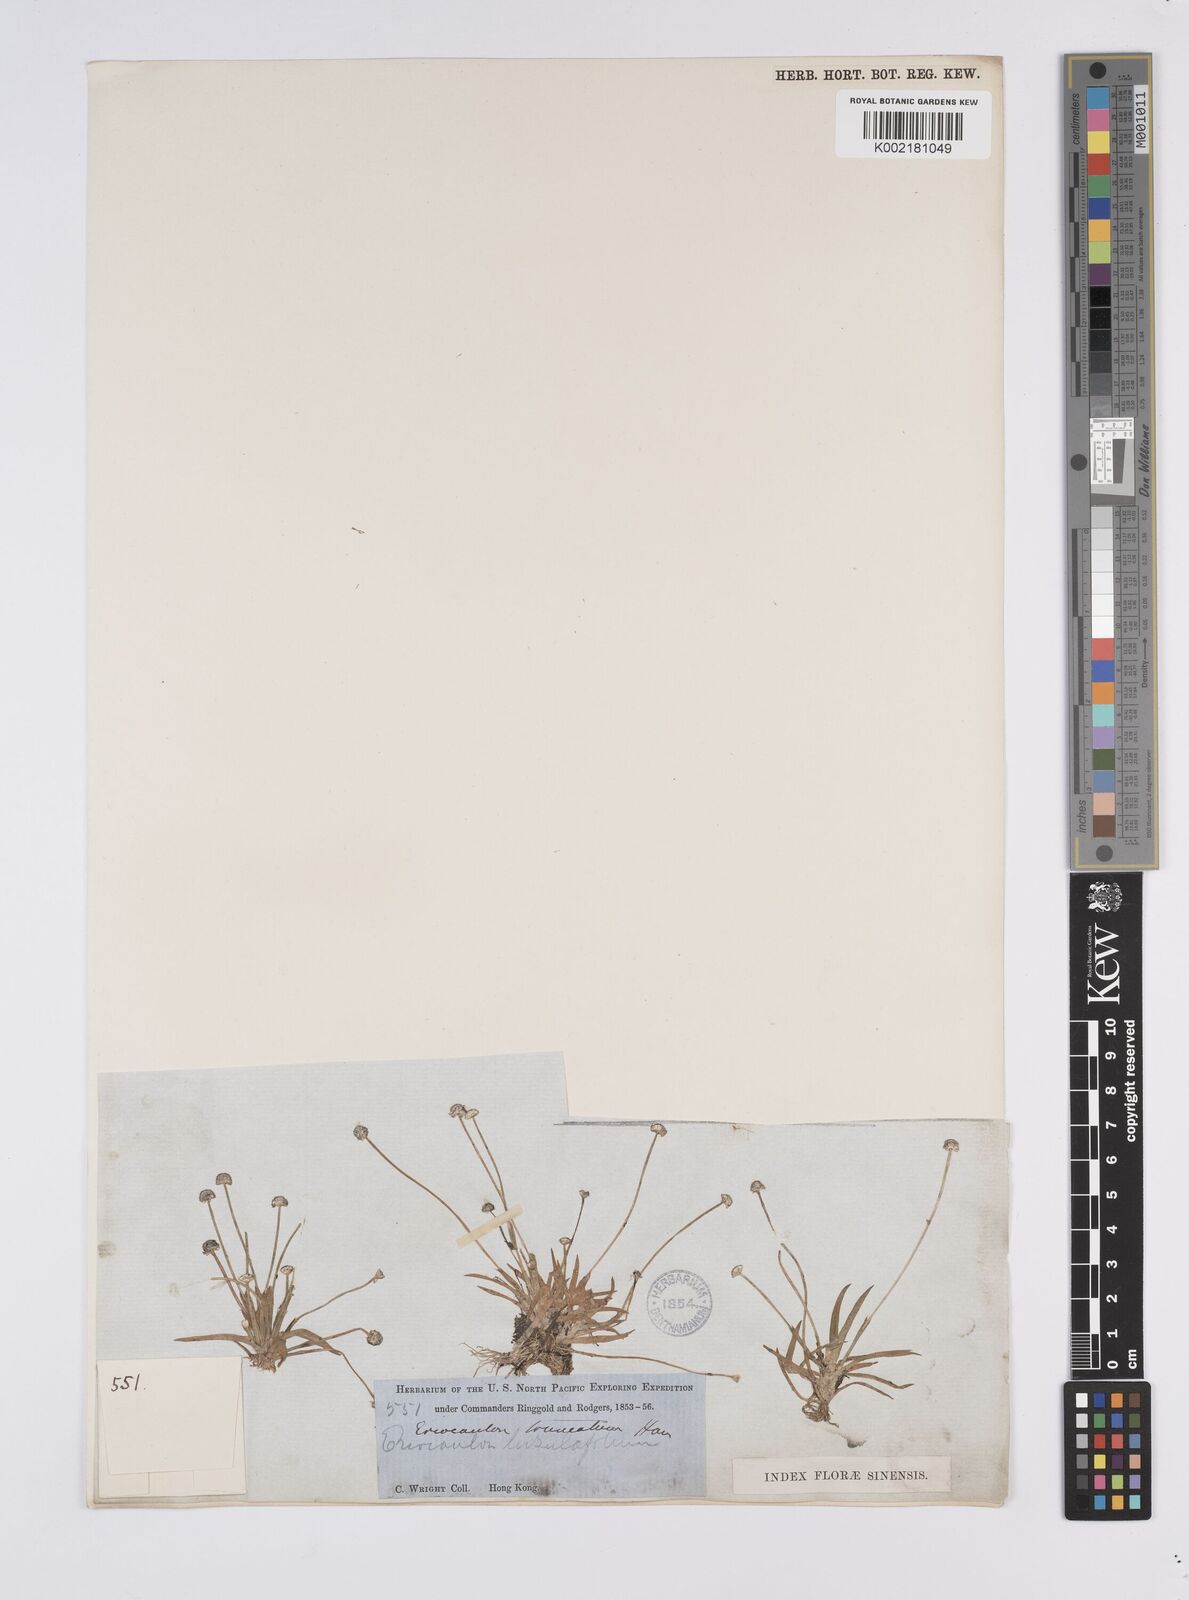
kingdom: Plantae
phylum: Tracheophyta
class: Liliopsida
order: Poales
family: Eriocaulaceae
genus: Eriocaulon
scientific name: Eriocaulon truncatum
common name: Short pipe-wort
